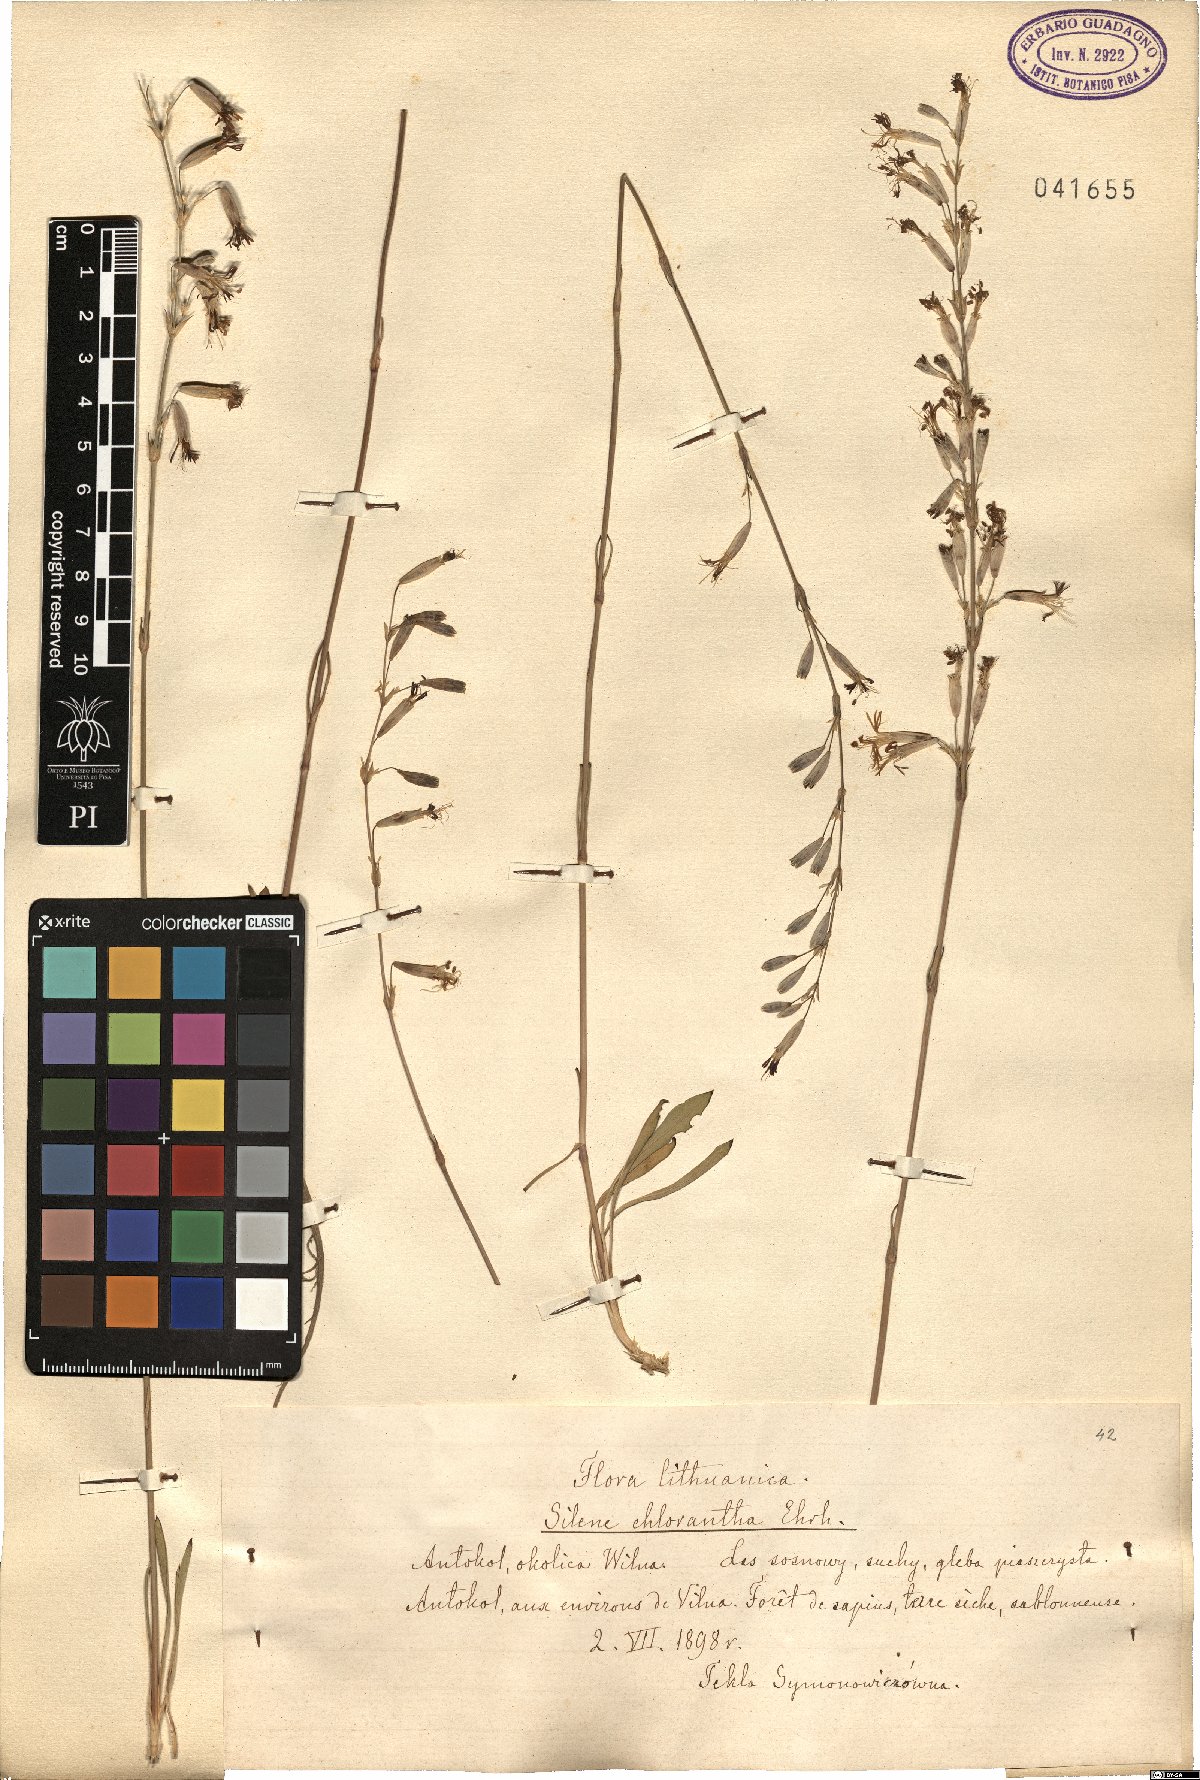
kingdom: Plantae
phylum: Tracheophyta
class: Magnoliopsida
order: Caryophyllales
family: Caryophyllaceae
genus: Silene
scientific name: Silene chlorantha
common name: Yellowgreen catchfly
